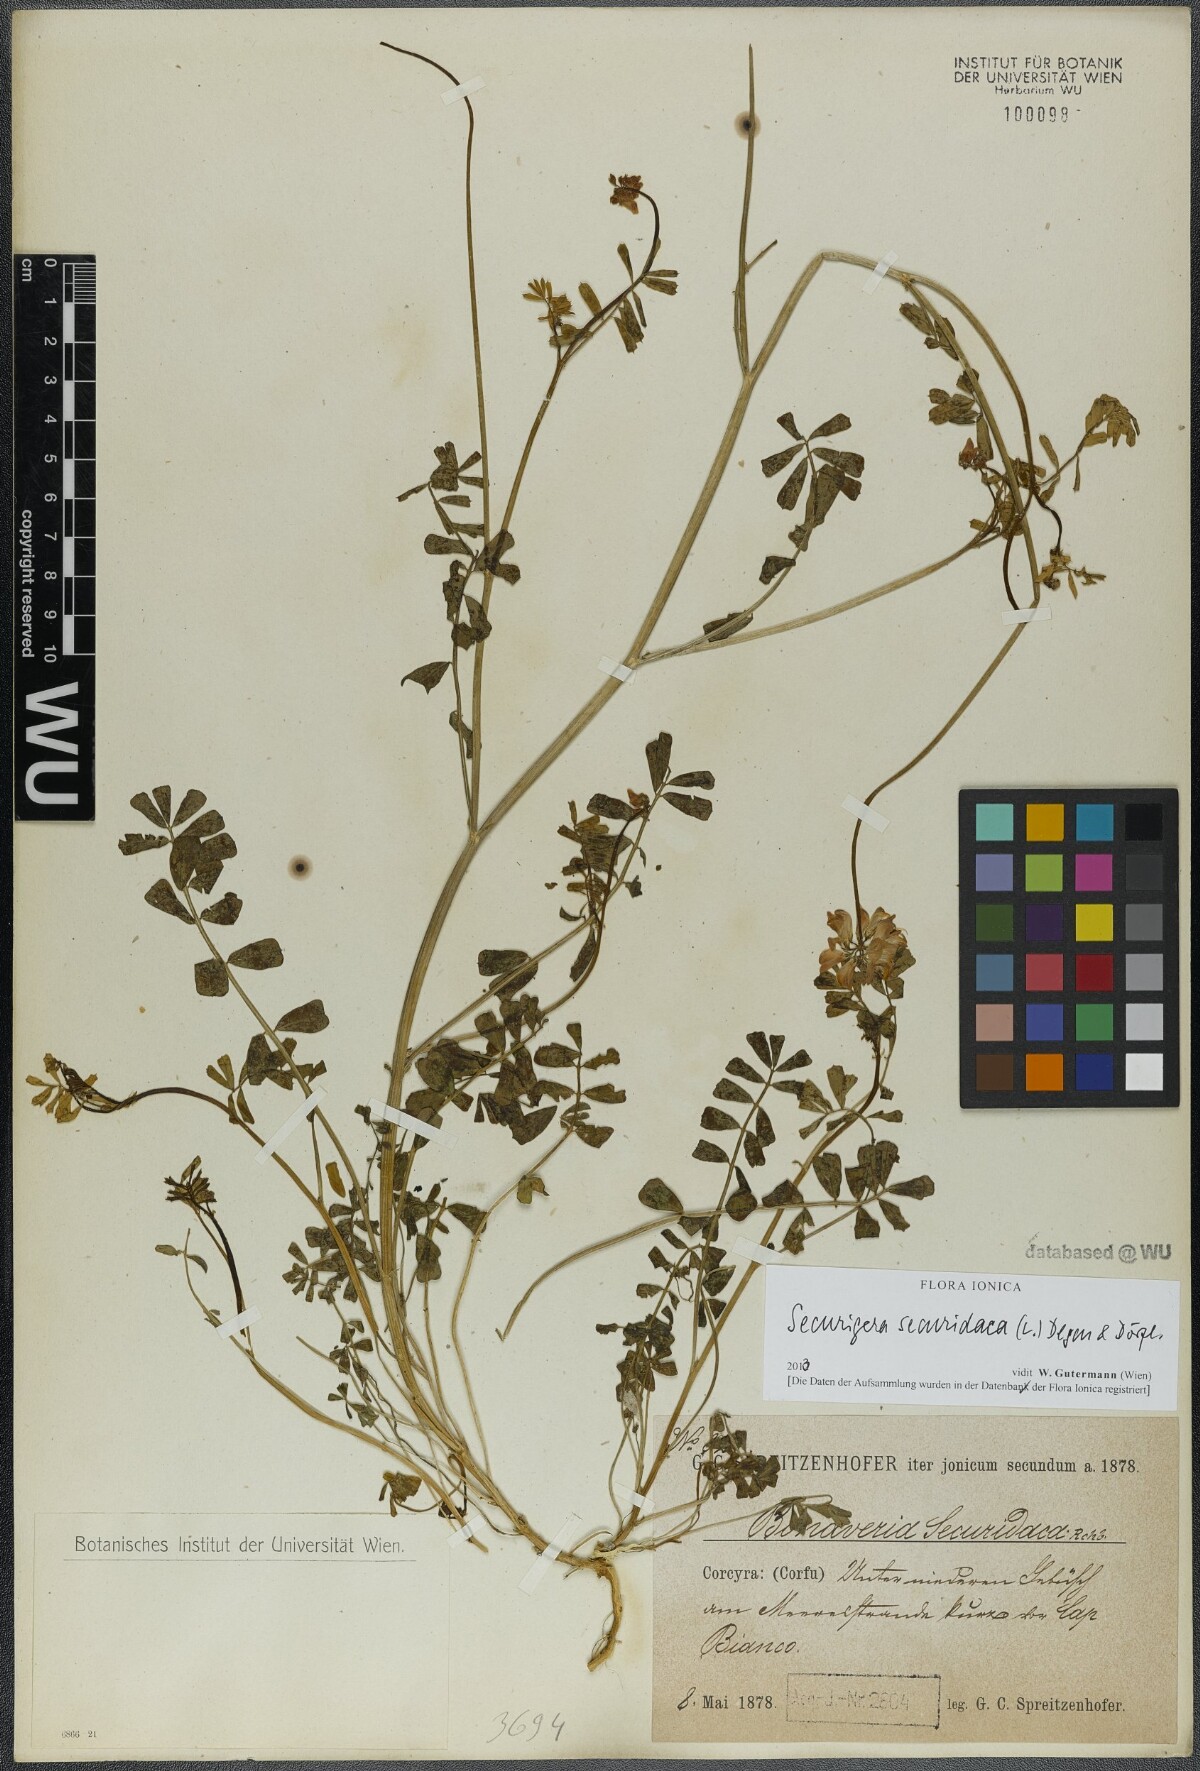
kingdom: Plantae
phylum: Tracheophyta
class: Magnoliopsida
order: Fabales
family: Fabaceae
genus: Coronilla
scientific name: Coronilla securidaca
